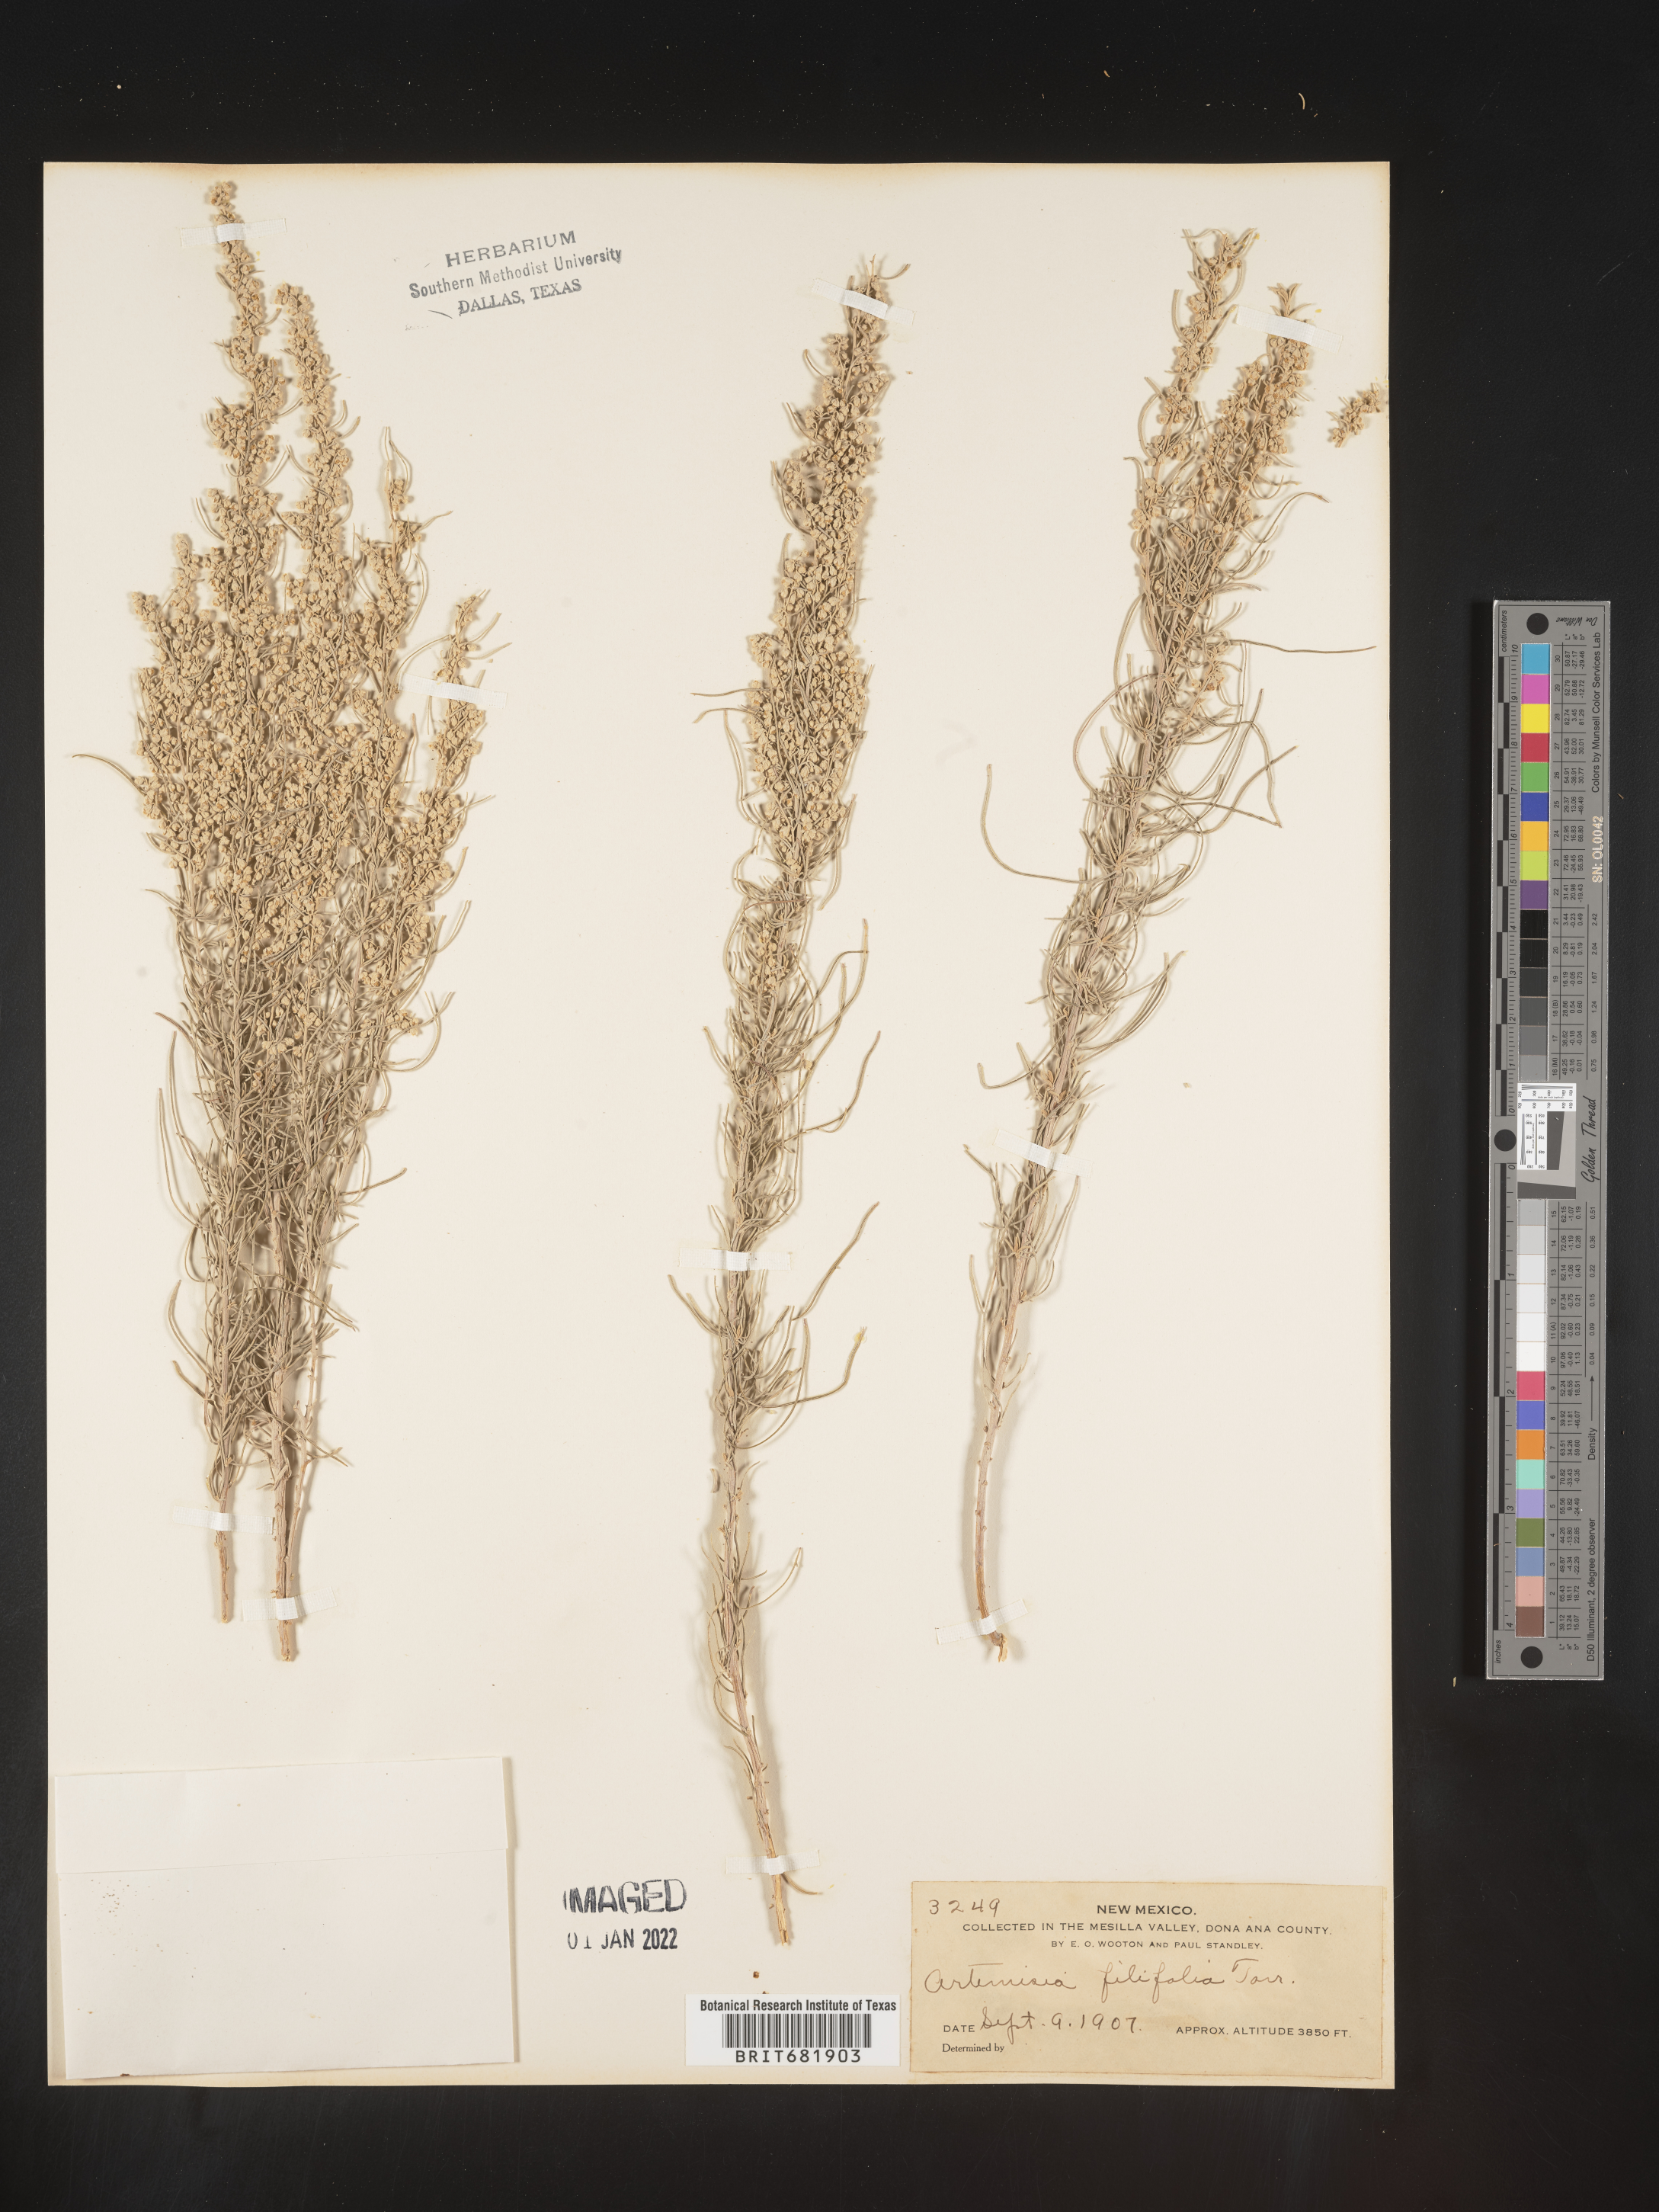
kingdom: Plantae
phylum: Tracheophyta
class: Magnoliopsida
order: Asterales
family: Asteraceae
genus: Artemisia
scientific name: Artemisia filifolia
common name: Sand-sage
